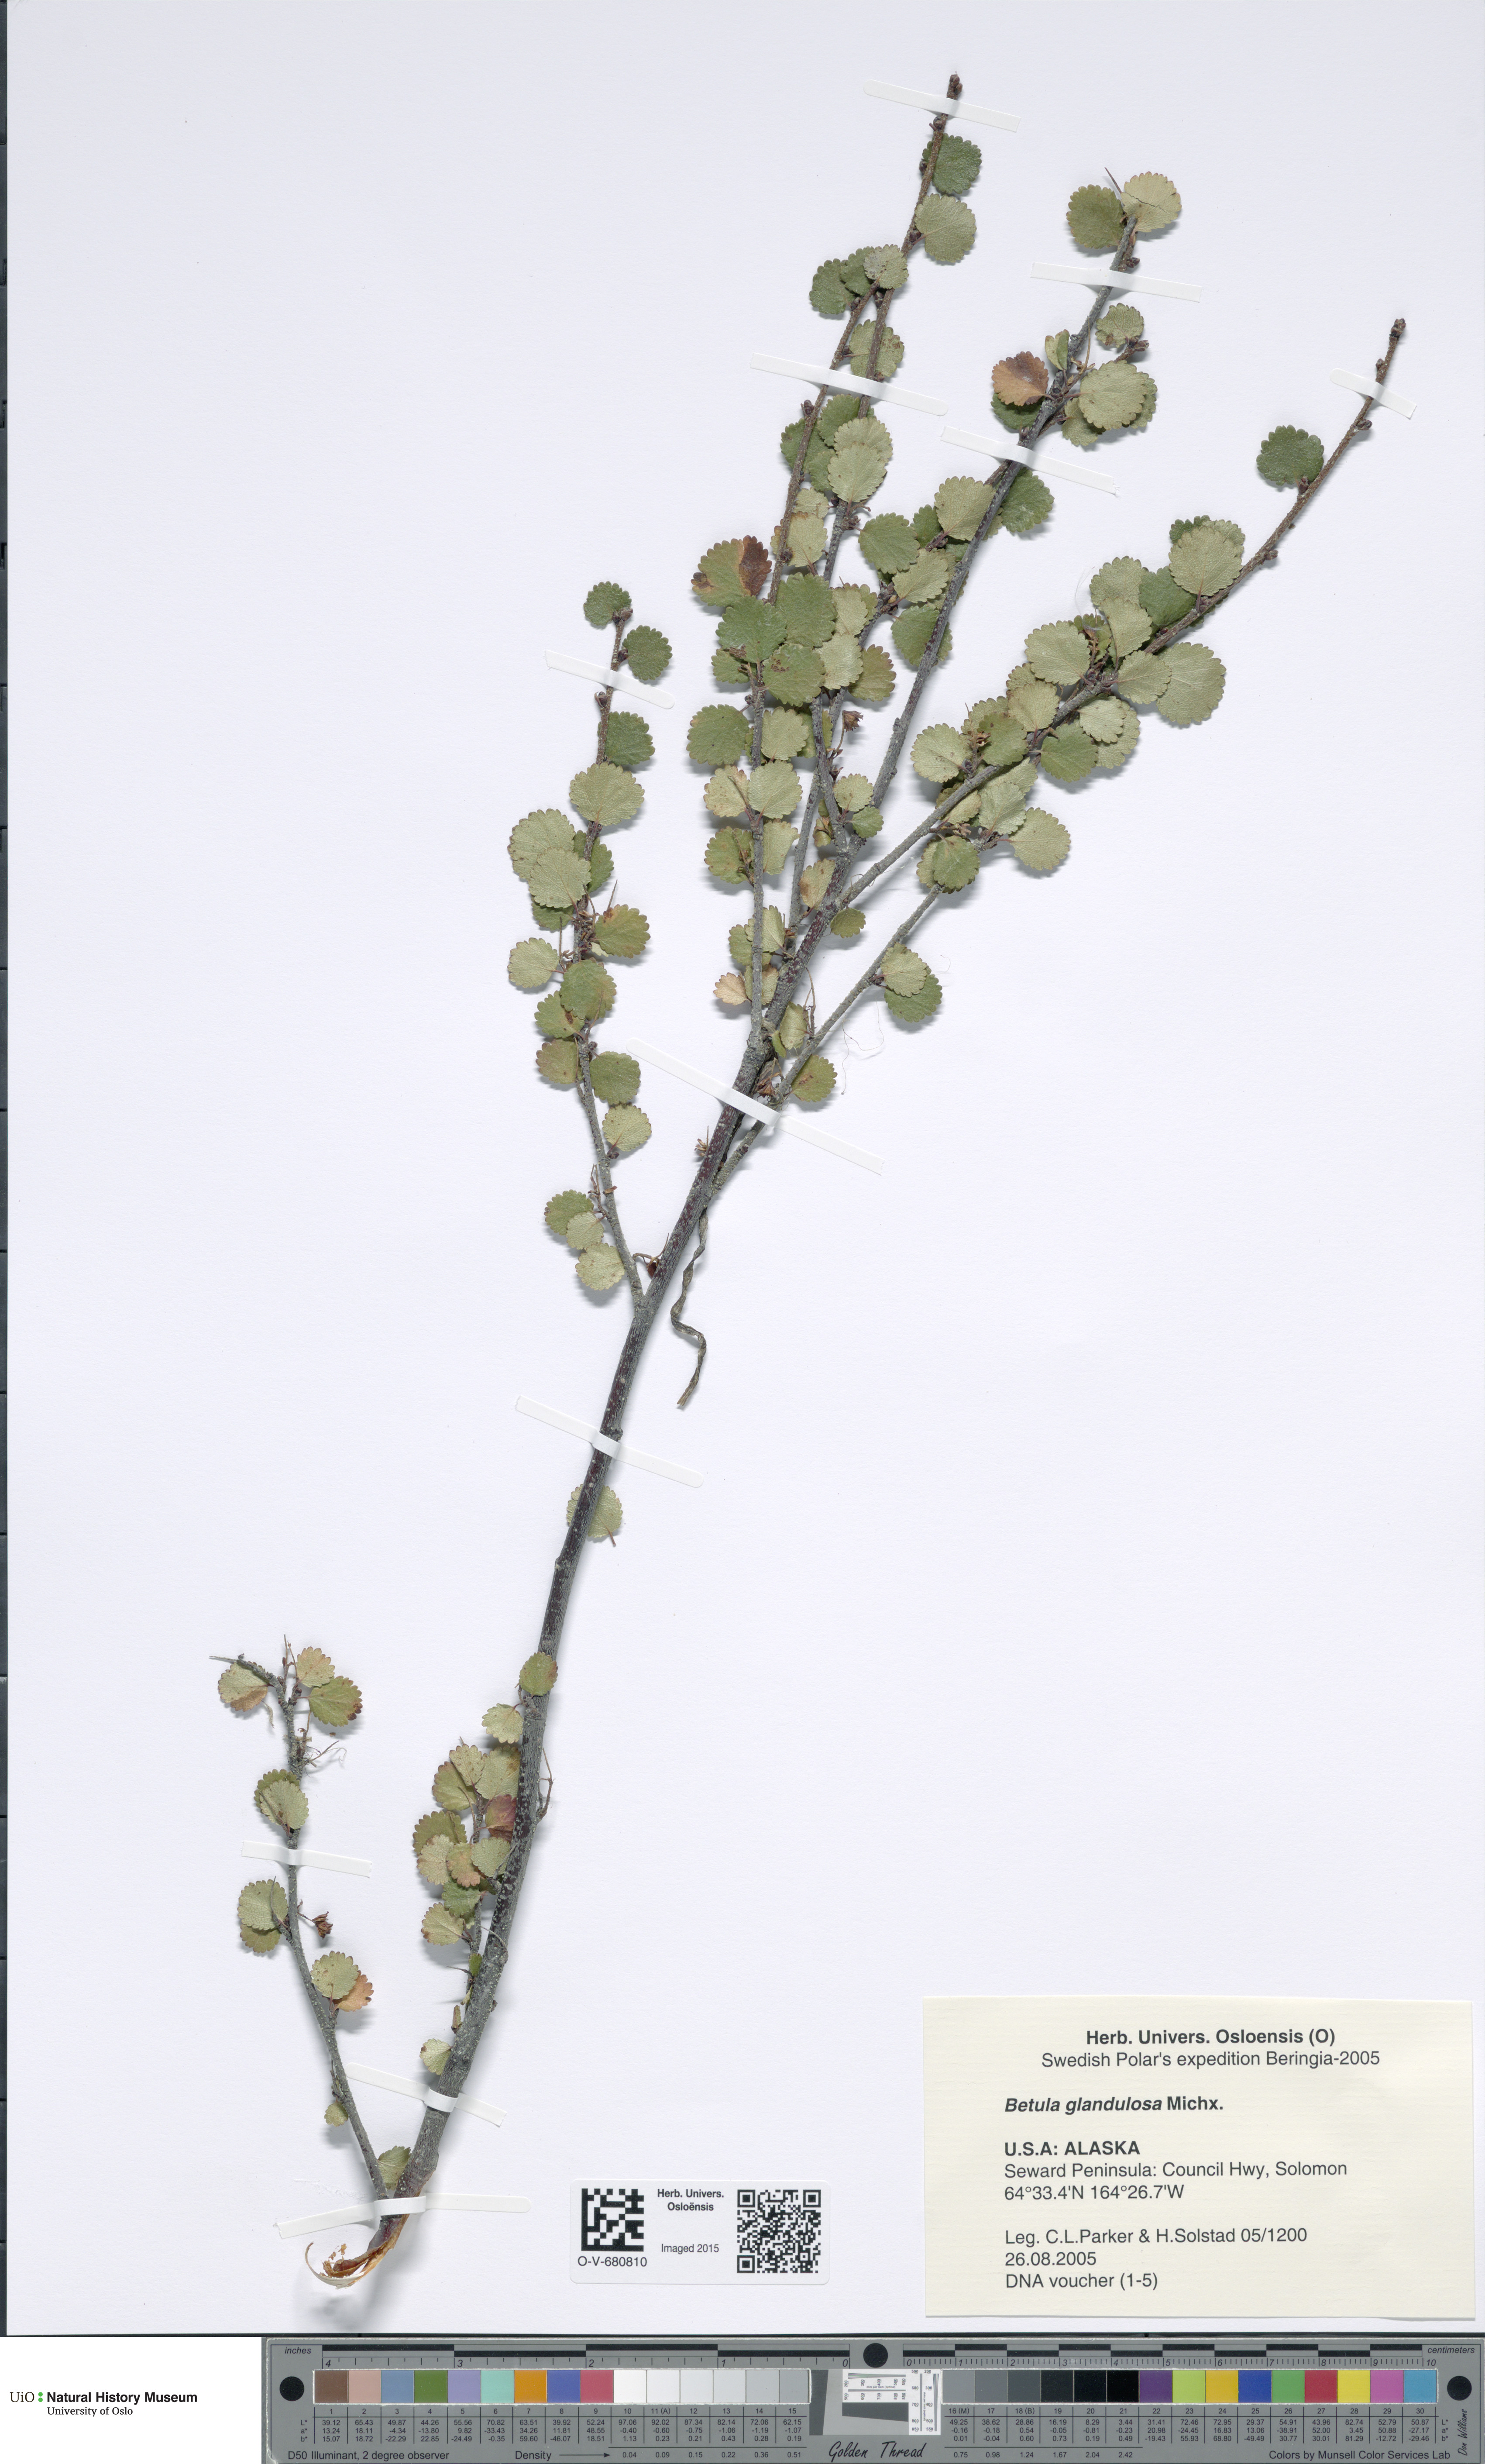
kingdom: Plantae
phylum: Tracheophyta
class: Magnoliopsida
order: Fagales
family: Betulaceae
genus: Betula
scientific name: Betula glandulosa
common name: Dwarf birch
